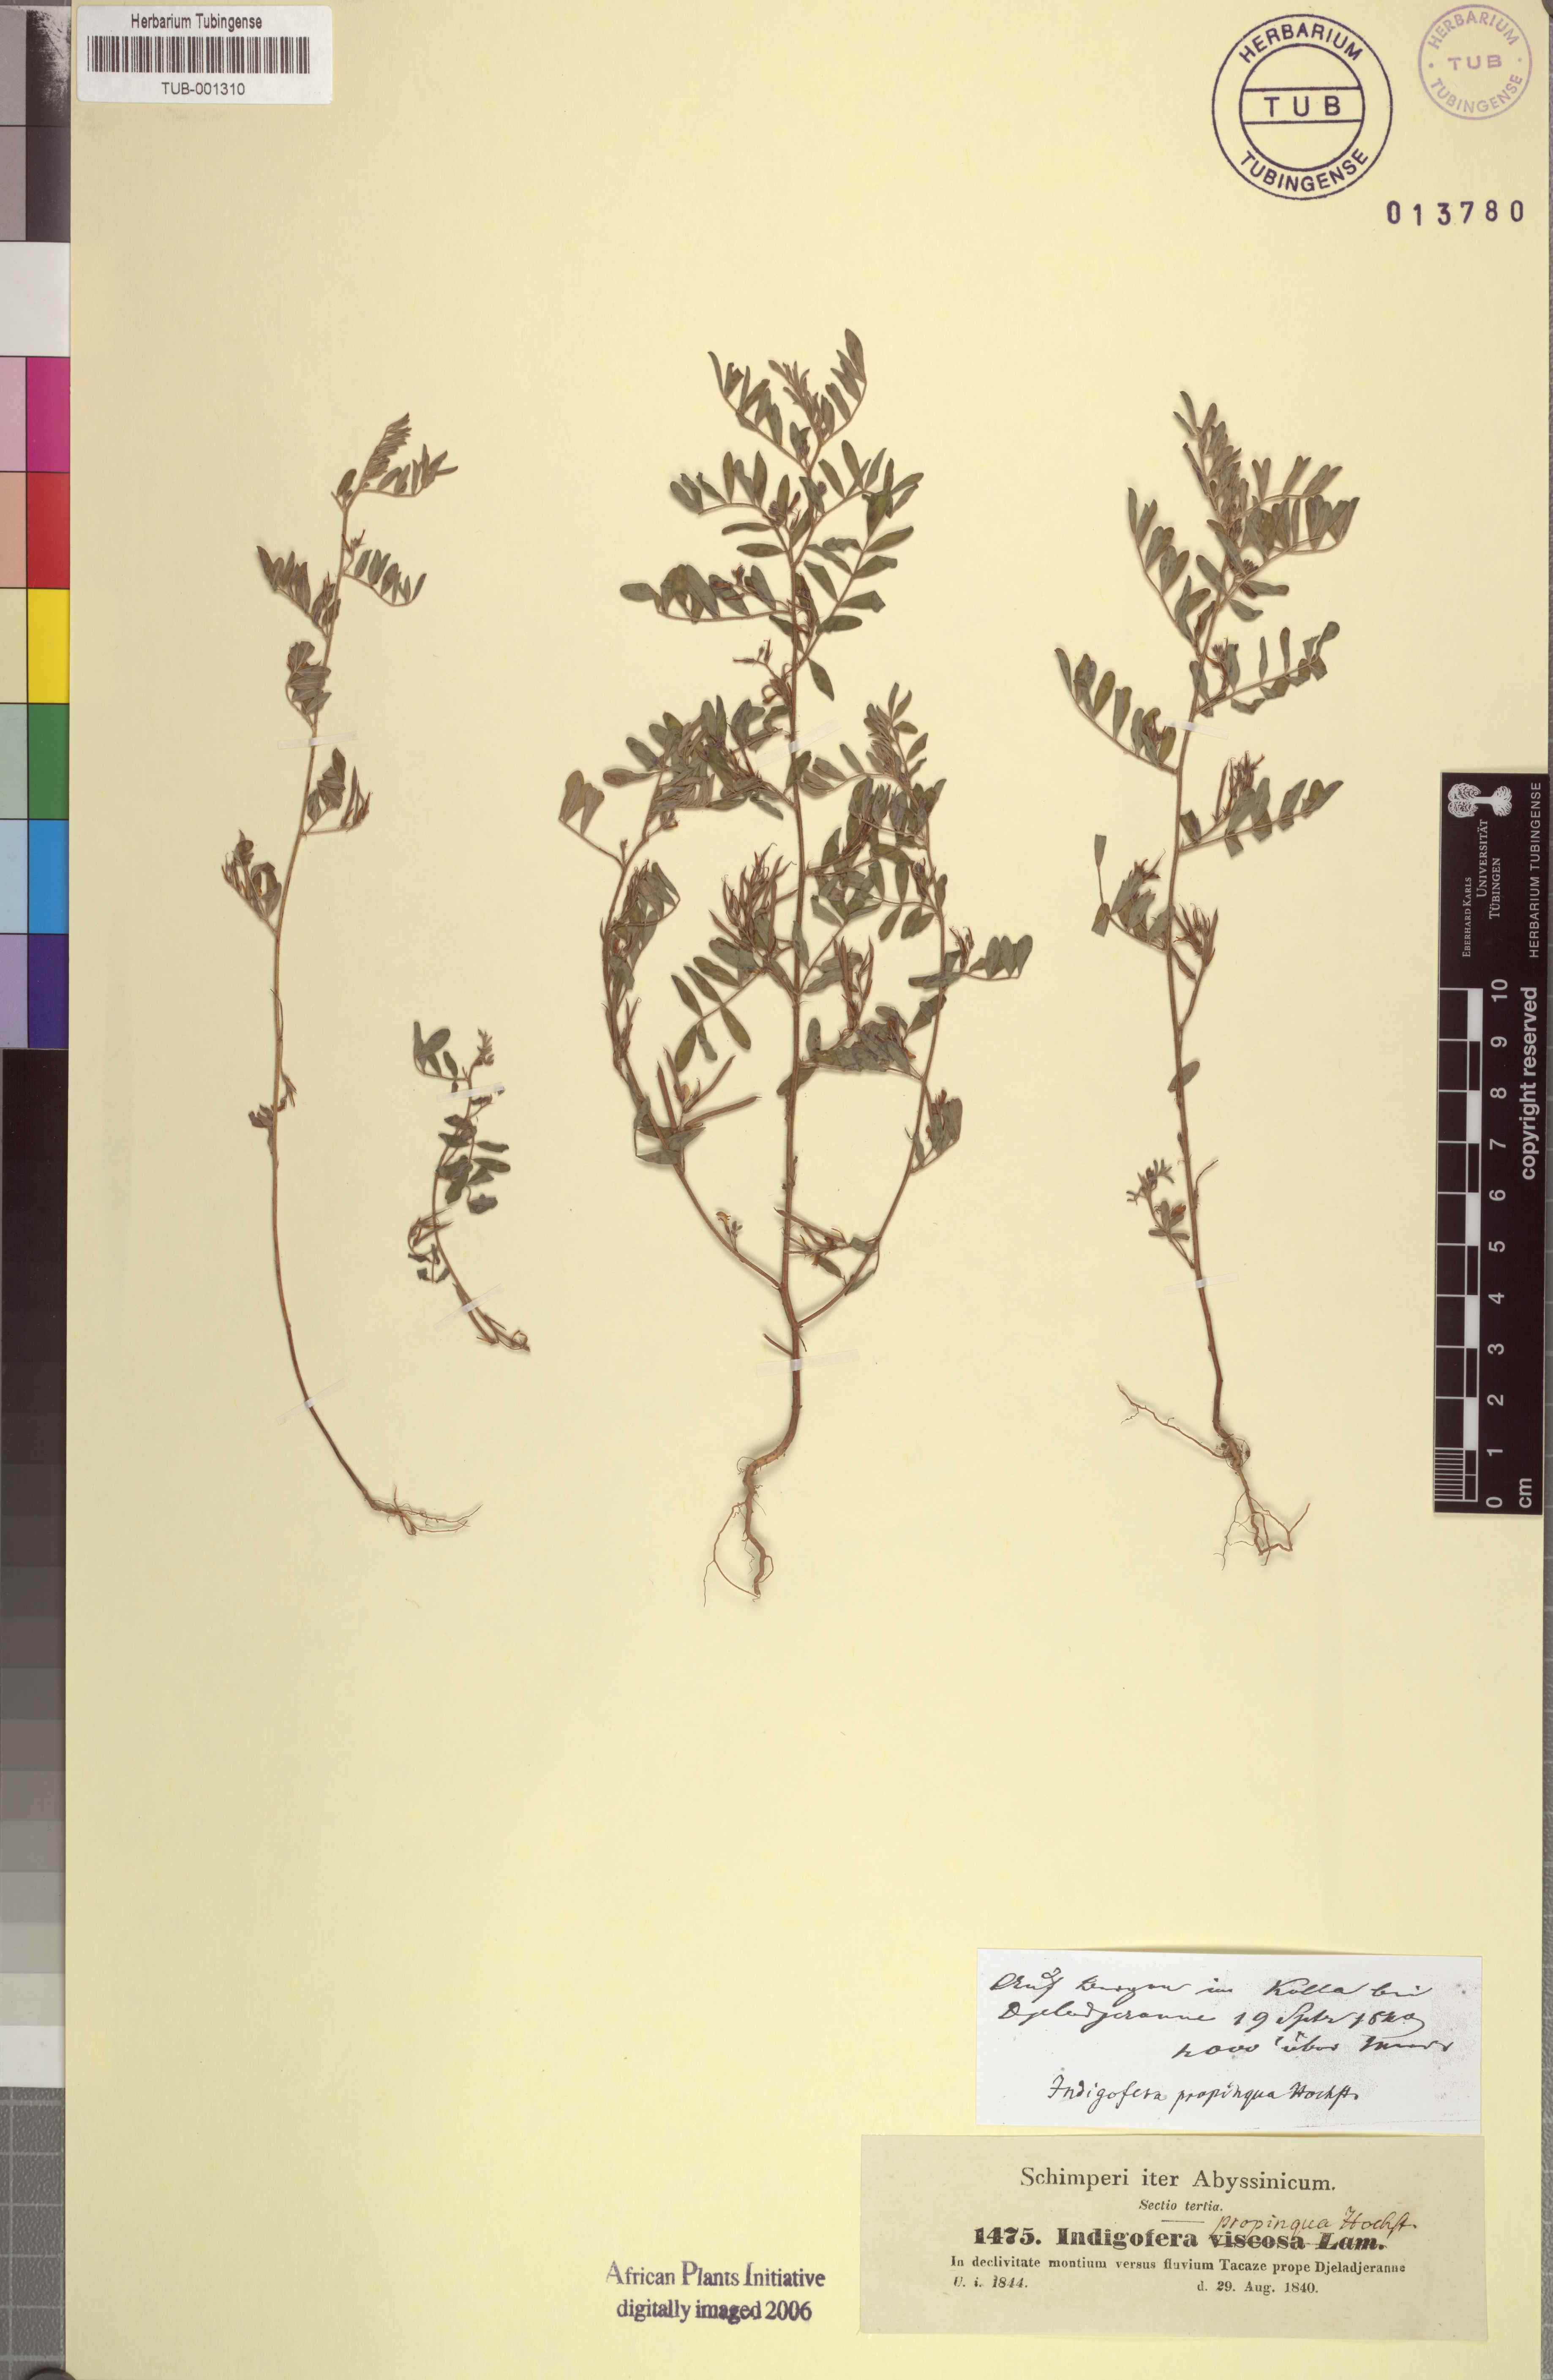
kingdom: Plantae
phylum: Tracheophyta
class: Magnoliopsida
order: Fabales
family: Fabaceae
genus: Indigofera
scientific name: Indigofera colutea
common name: Rusty indigo
